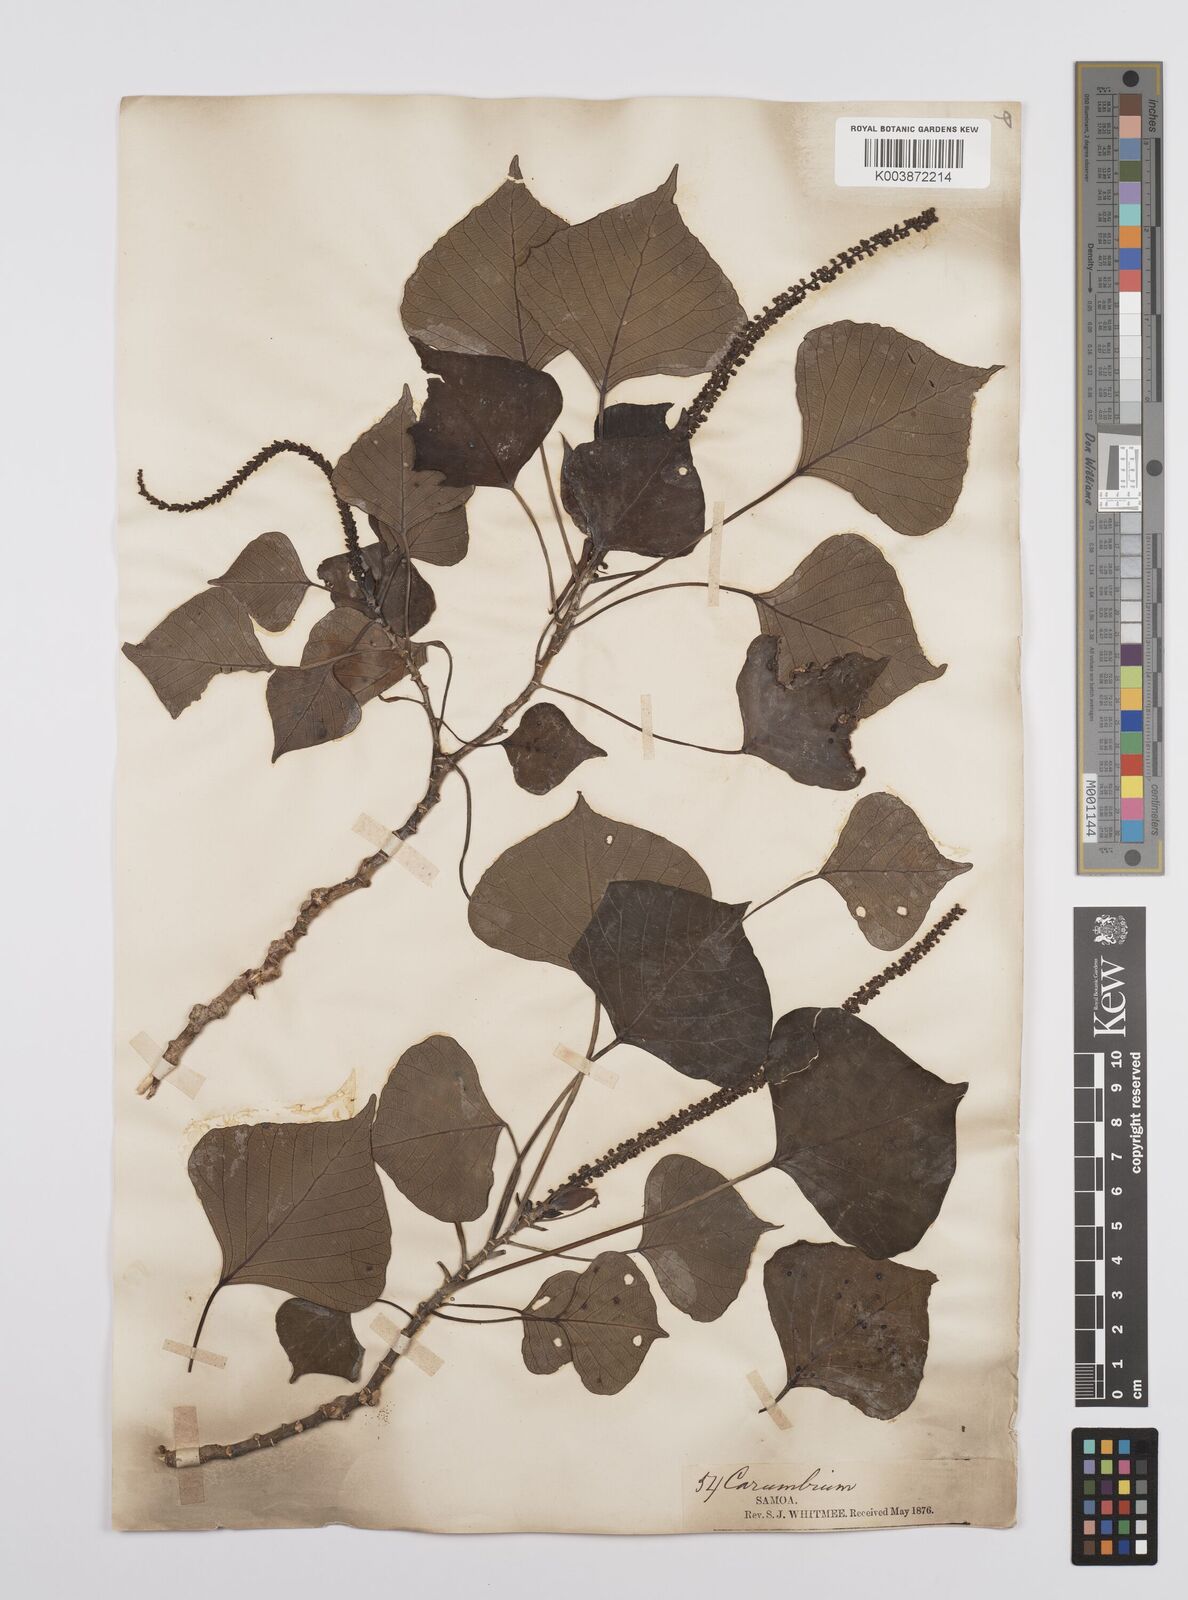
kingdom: Plantae
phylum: Tracheophyta
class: Magnoliopsida
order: Malpighiales
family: Euphorbiaceae
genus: Homalanthus
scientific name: Homalanthus acuminatus
